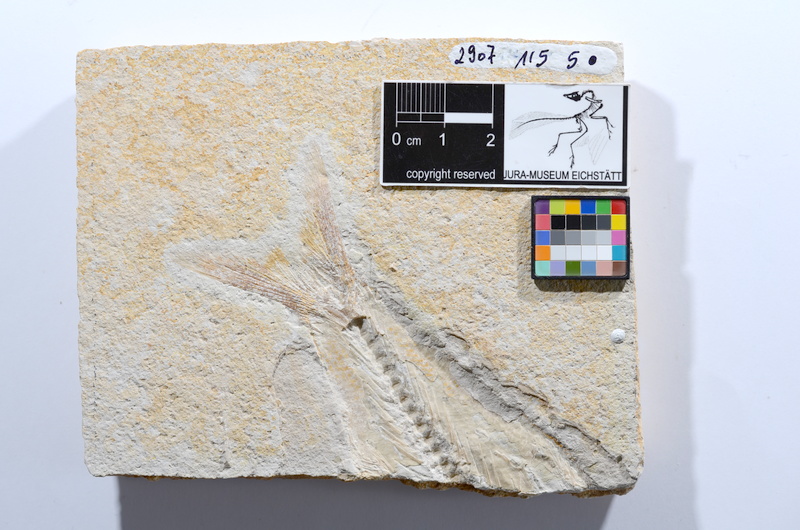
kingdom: Animalia
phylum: Chordata
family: Ascalaboidae
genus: Tharsis
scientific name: Tharsis dubius
